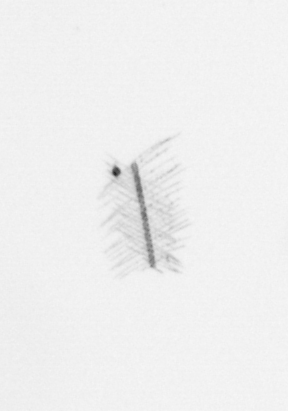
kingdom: Chromista
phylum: Ochrophyta
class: Bacillariophyceae
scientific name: Bacillariophyceae
